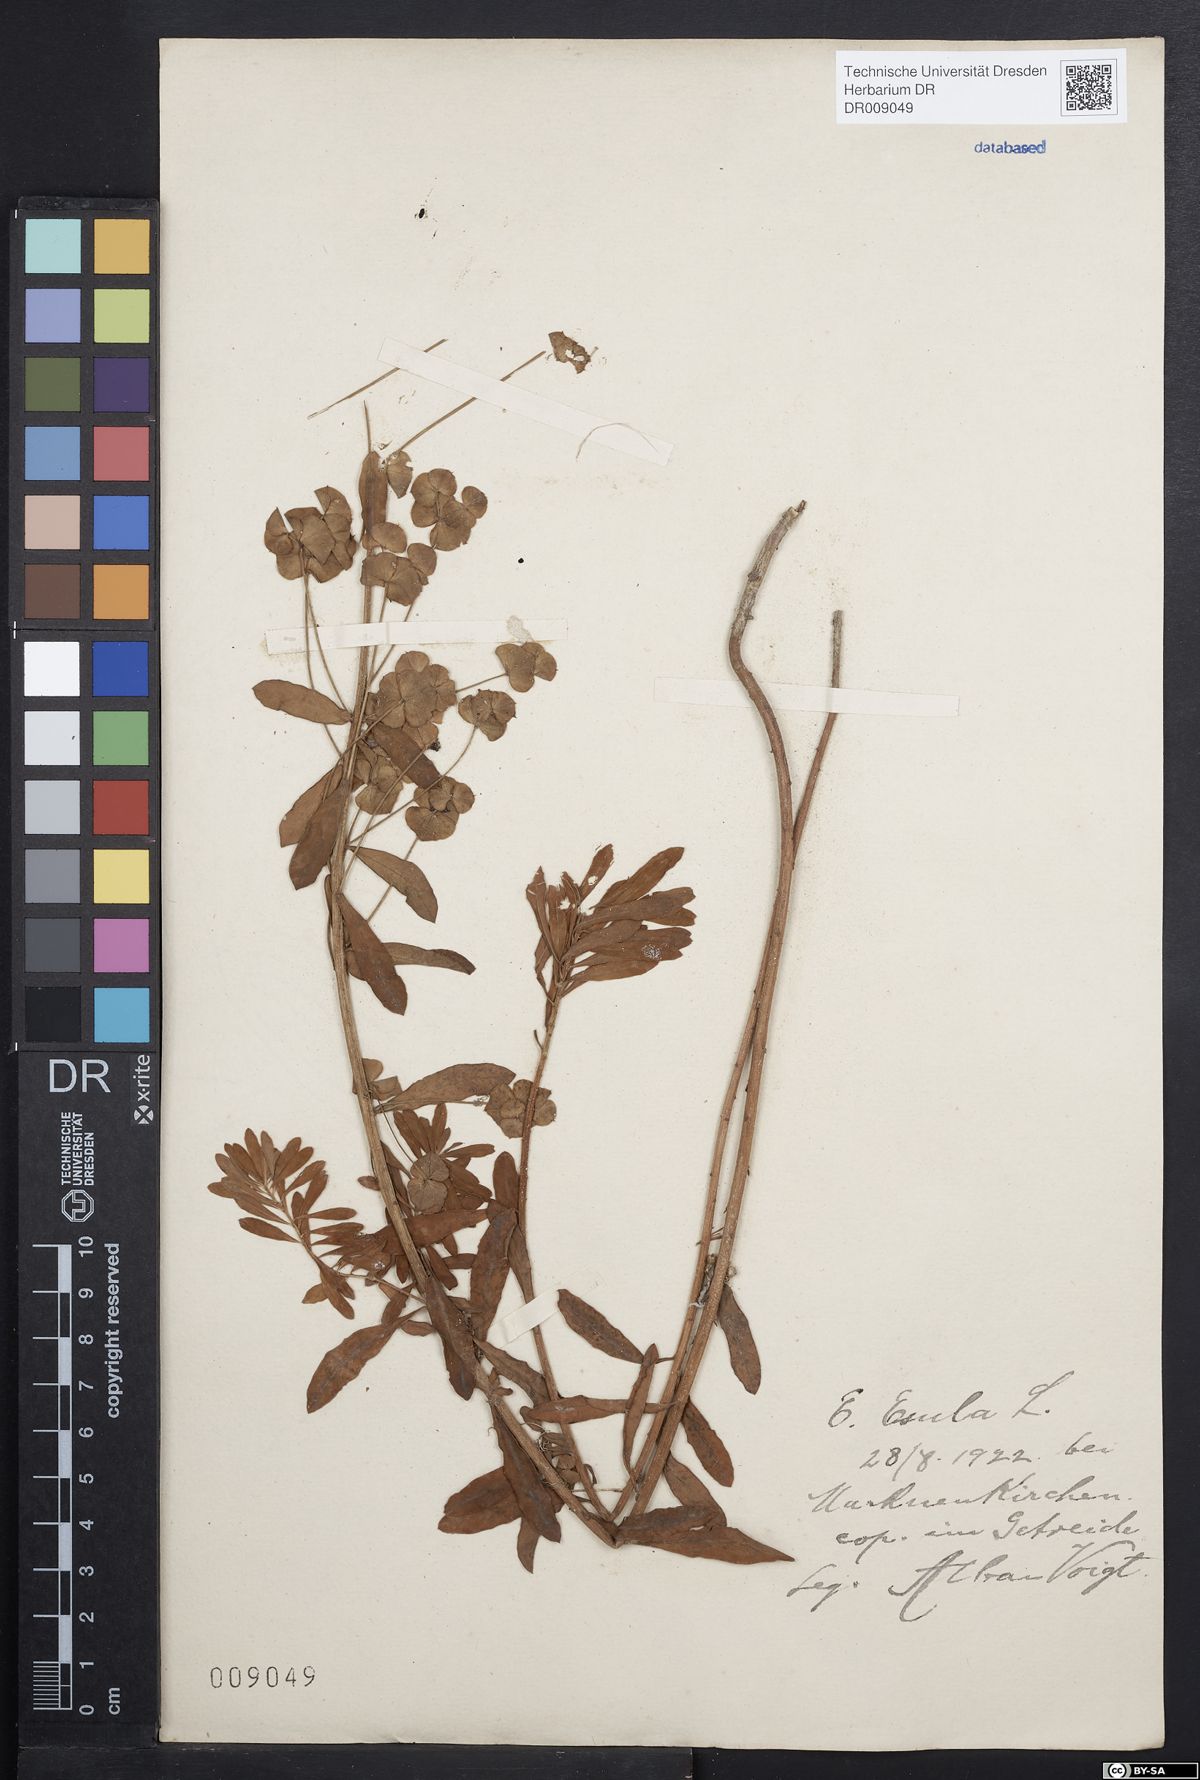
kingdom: Plantae
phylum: Tracheophyta
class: Magnoliopsida
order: Malpighiales
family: Euphorbiaceae
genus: Euphorbia
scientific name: Euphorbia esula
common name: Leafy spurge
